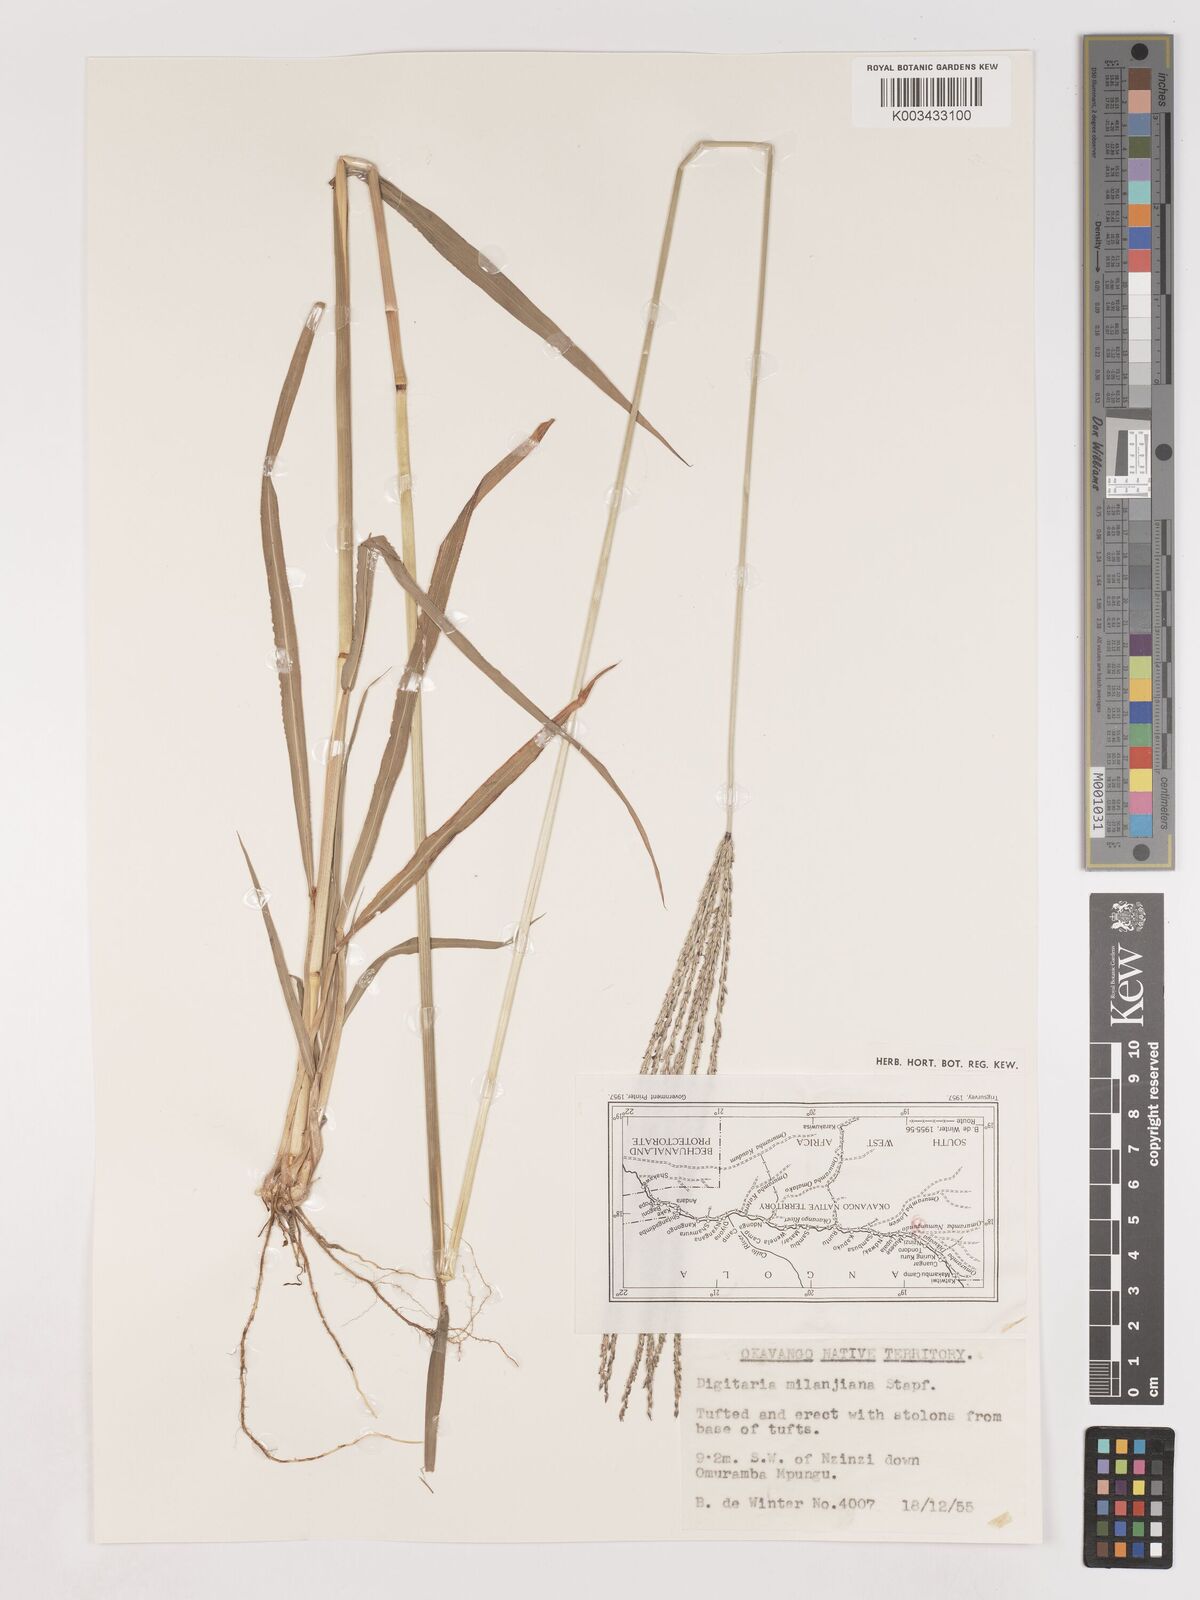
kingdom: Plantae
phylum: Tracheophyta
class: Liliopsida
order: Poales
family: Poaceae
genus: Digitaria
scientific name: Digitaria milanjiana
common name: Madagascar crabgrass
